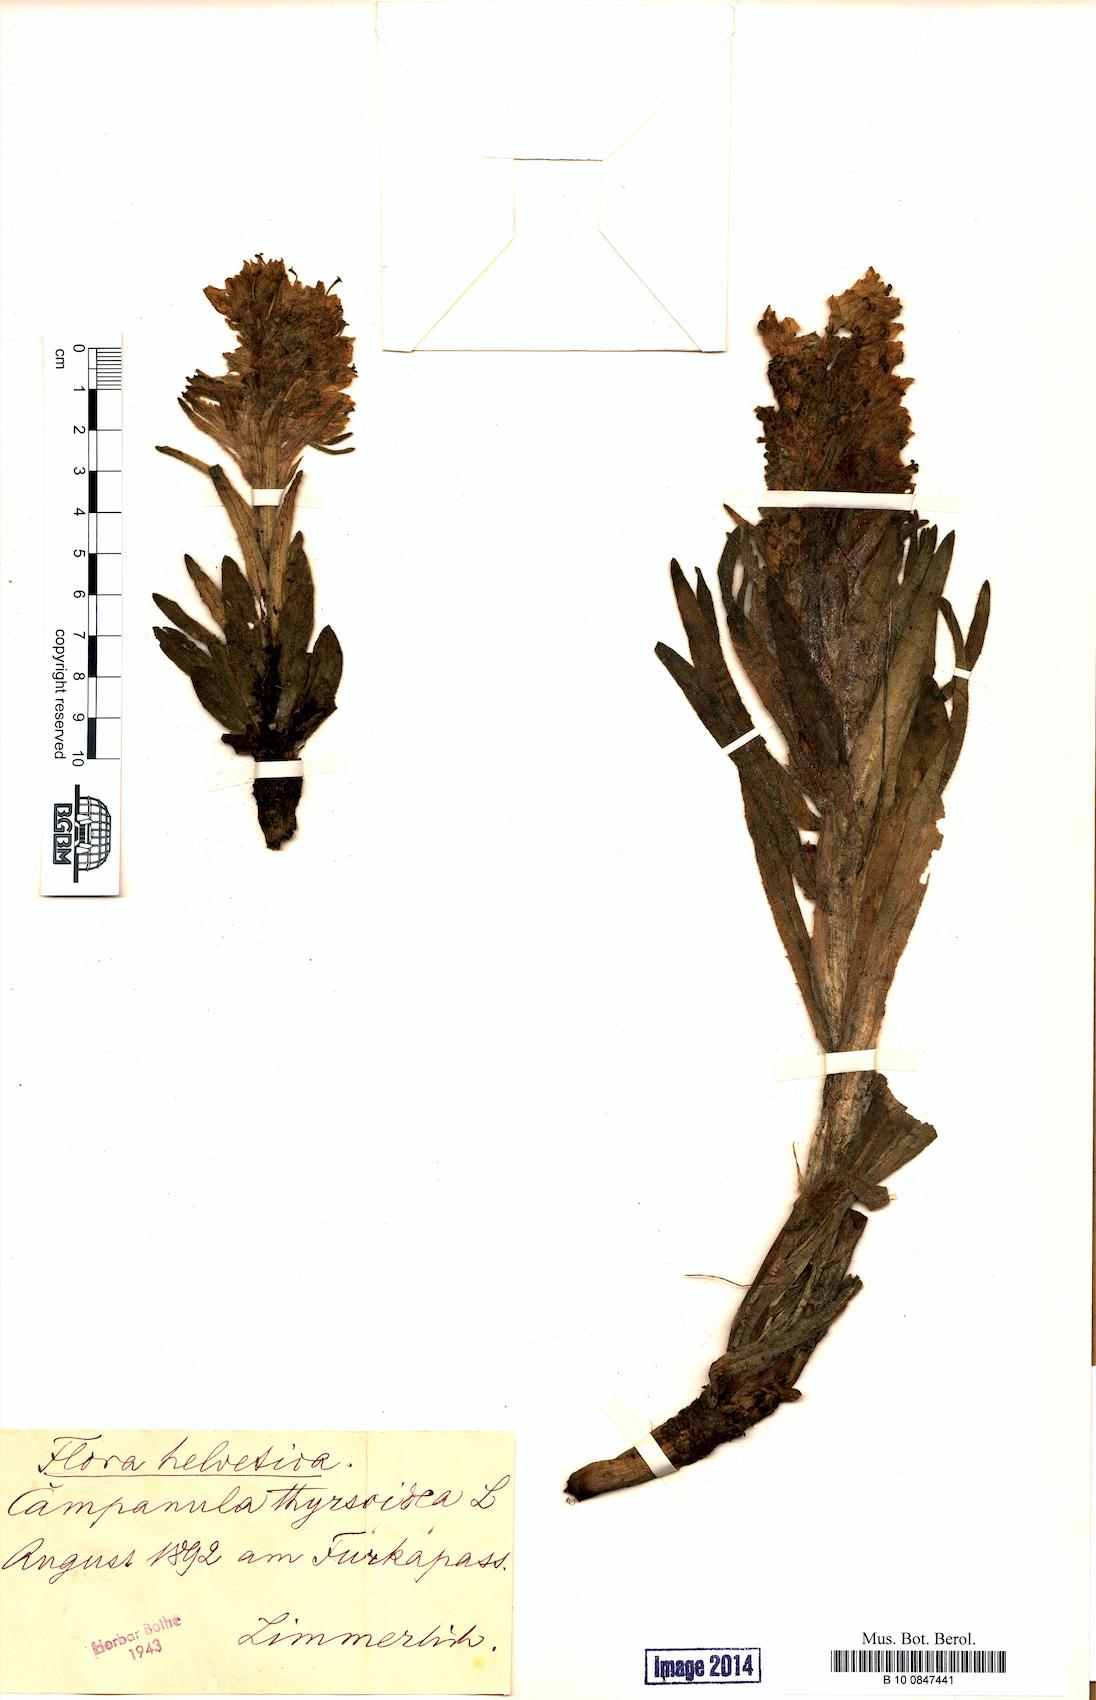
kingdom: Plantae
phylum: Tracheophyta
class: Magnoliopsida
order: Asterales
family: Campanulaceae
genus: Campanula
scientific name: Campanula thyrsoides
